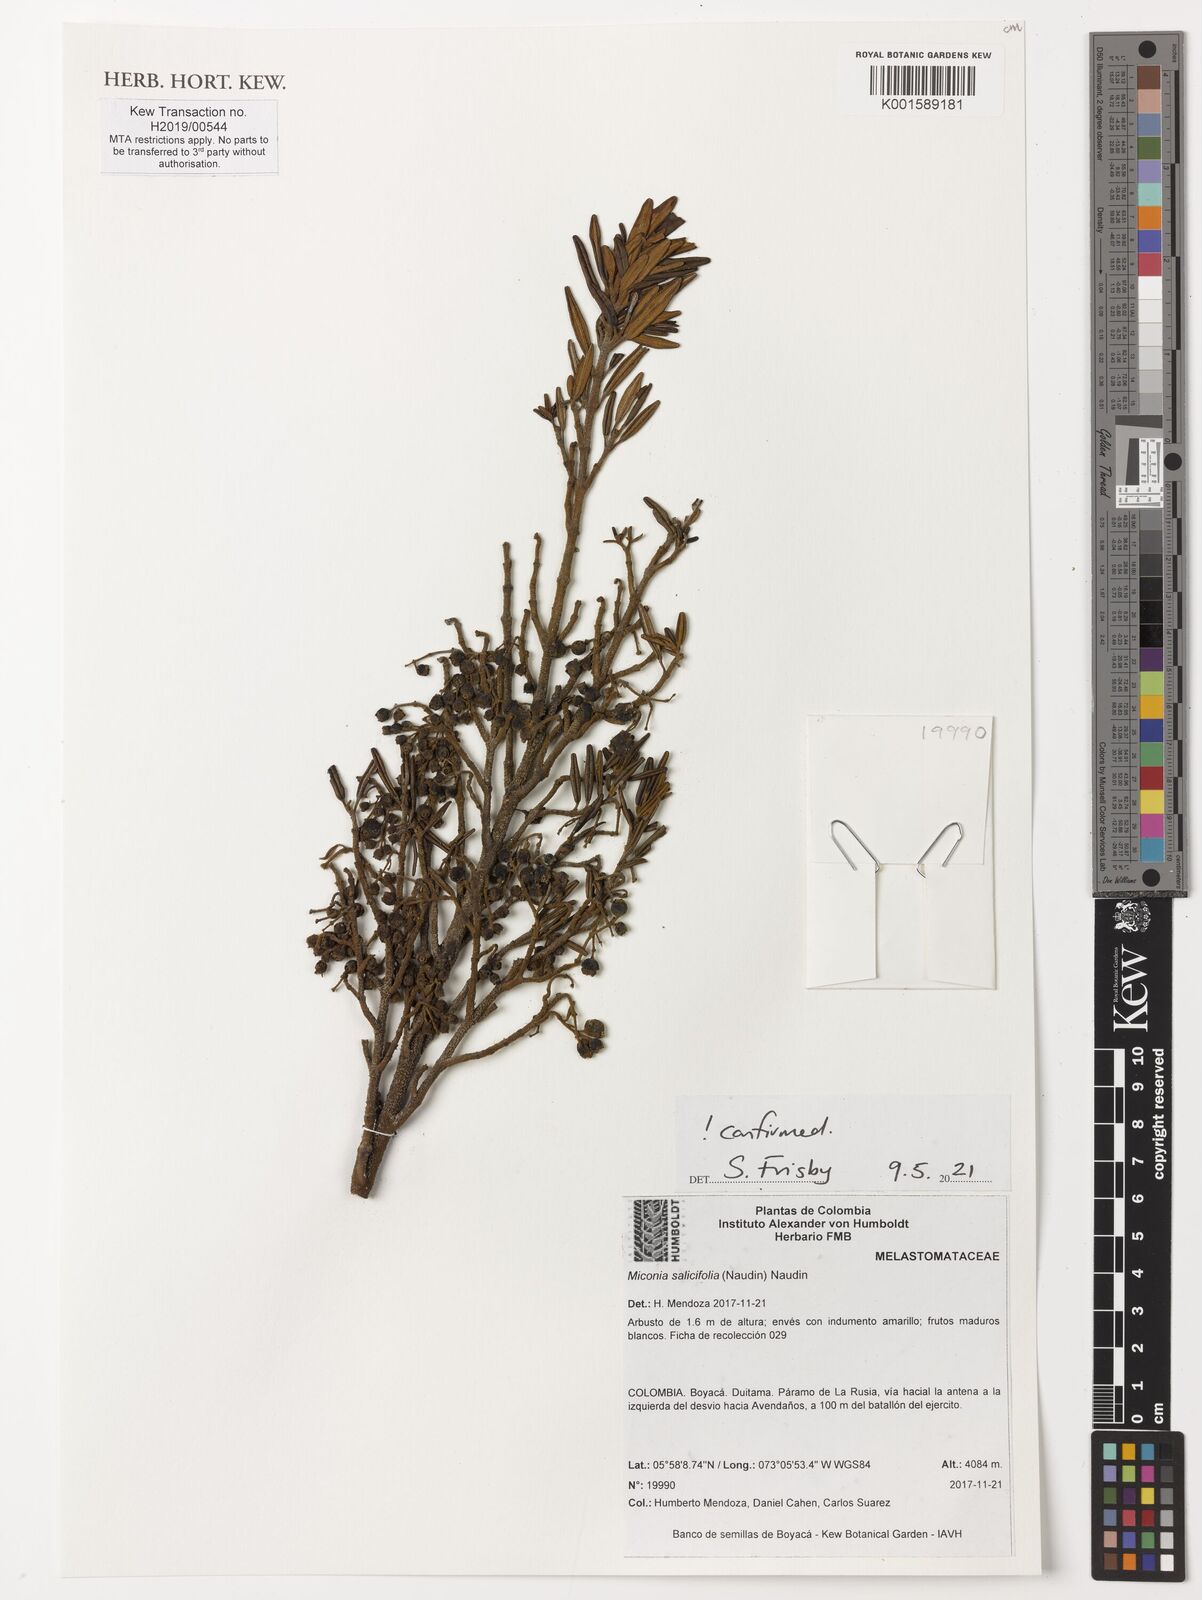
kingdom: Plantae
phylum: Tracheophyta
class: Magnoliopsida
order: Myrtales
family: Melastomataceae
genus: Miconia
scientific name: Miconia salicifolia
